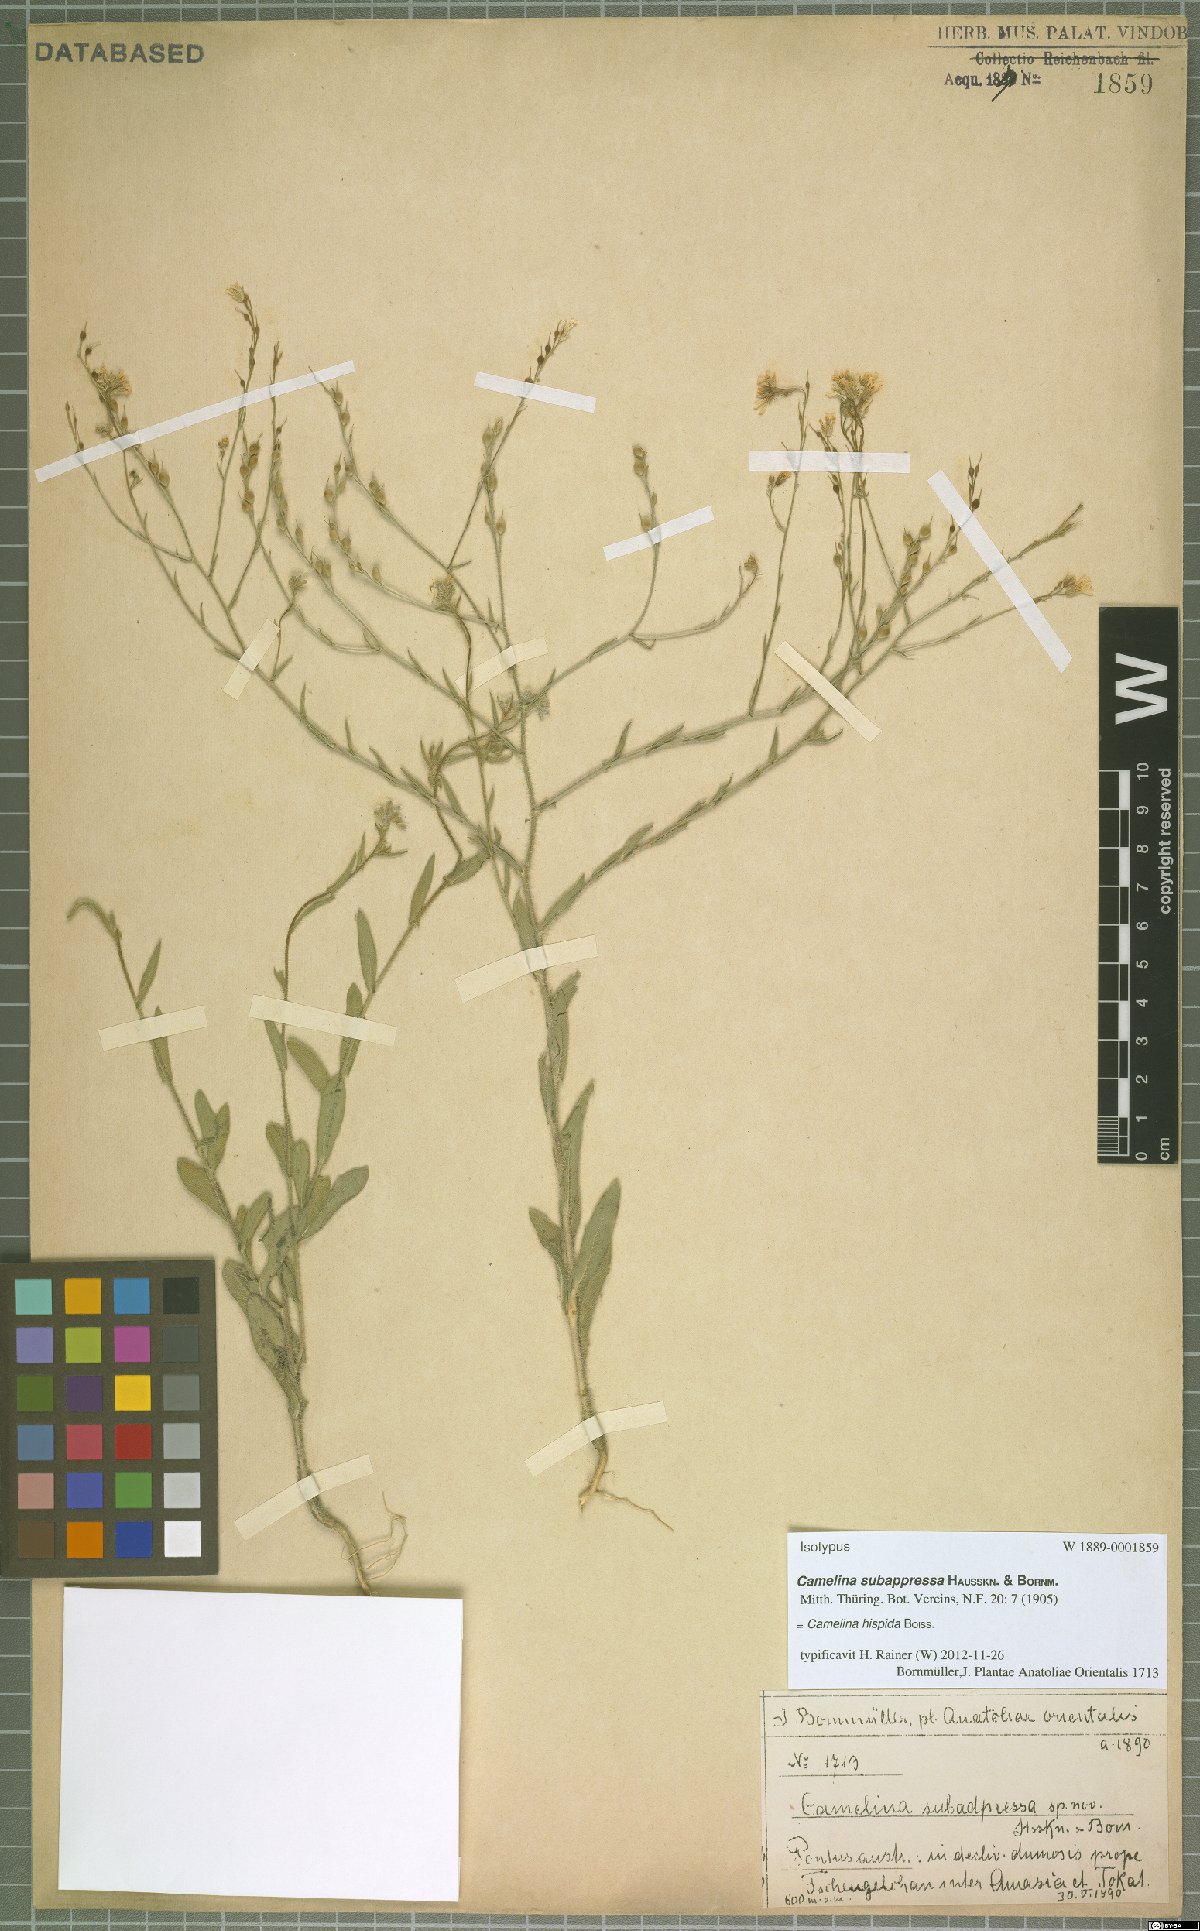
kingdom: Plantae
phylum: Tracheophyta
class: Magnoliopsida
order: Brassicales
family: Brassicaceae
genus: Camelina
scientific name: Camelina hispida
